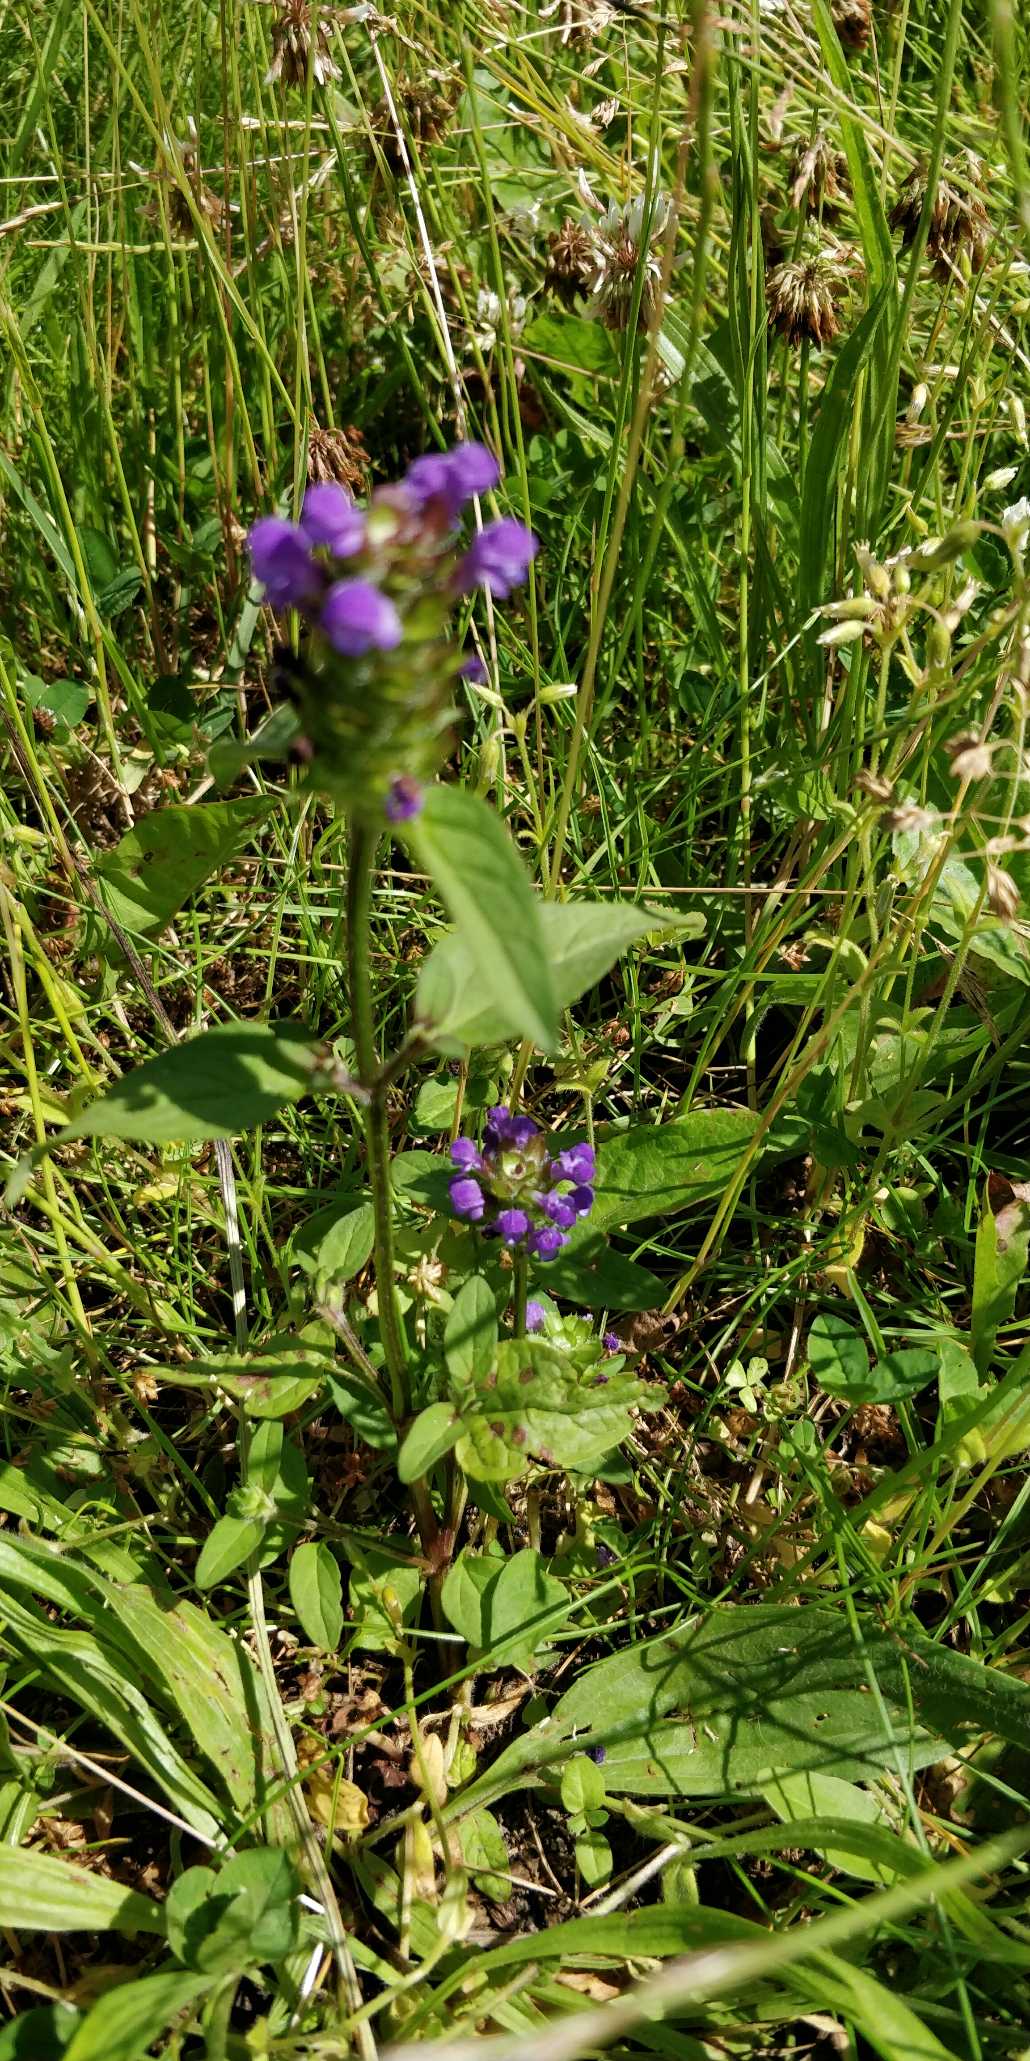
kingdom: Plantae
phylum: Tracheophyta
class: Magnoliopsida
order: Lamiales
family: Lamiaceae
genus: Prunella
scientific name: Prunella vulgaris
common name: Almindelig brunelle
